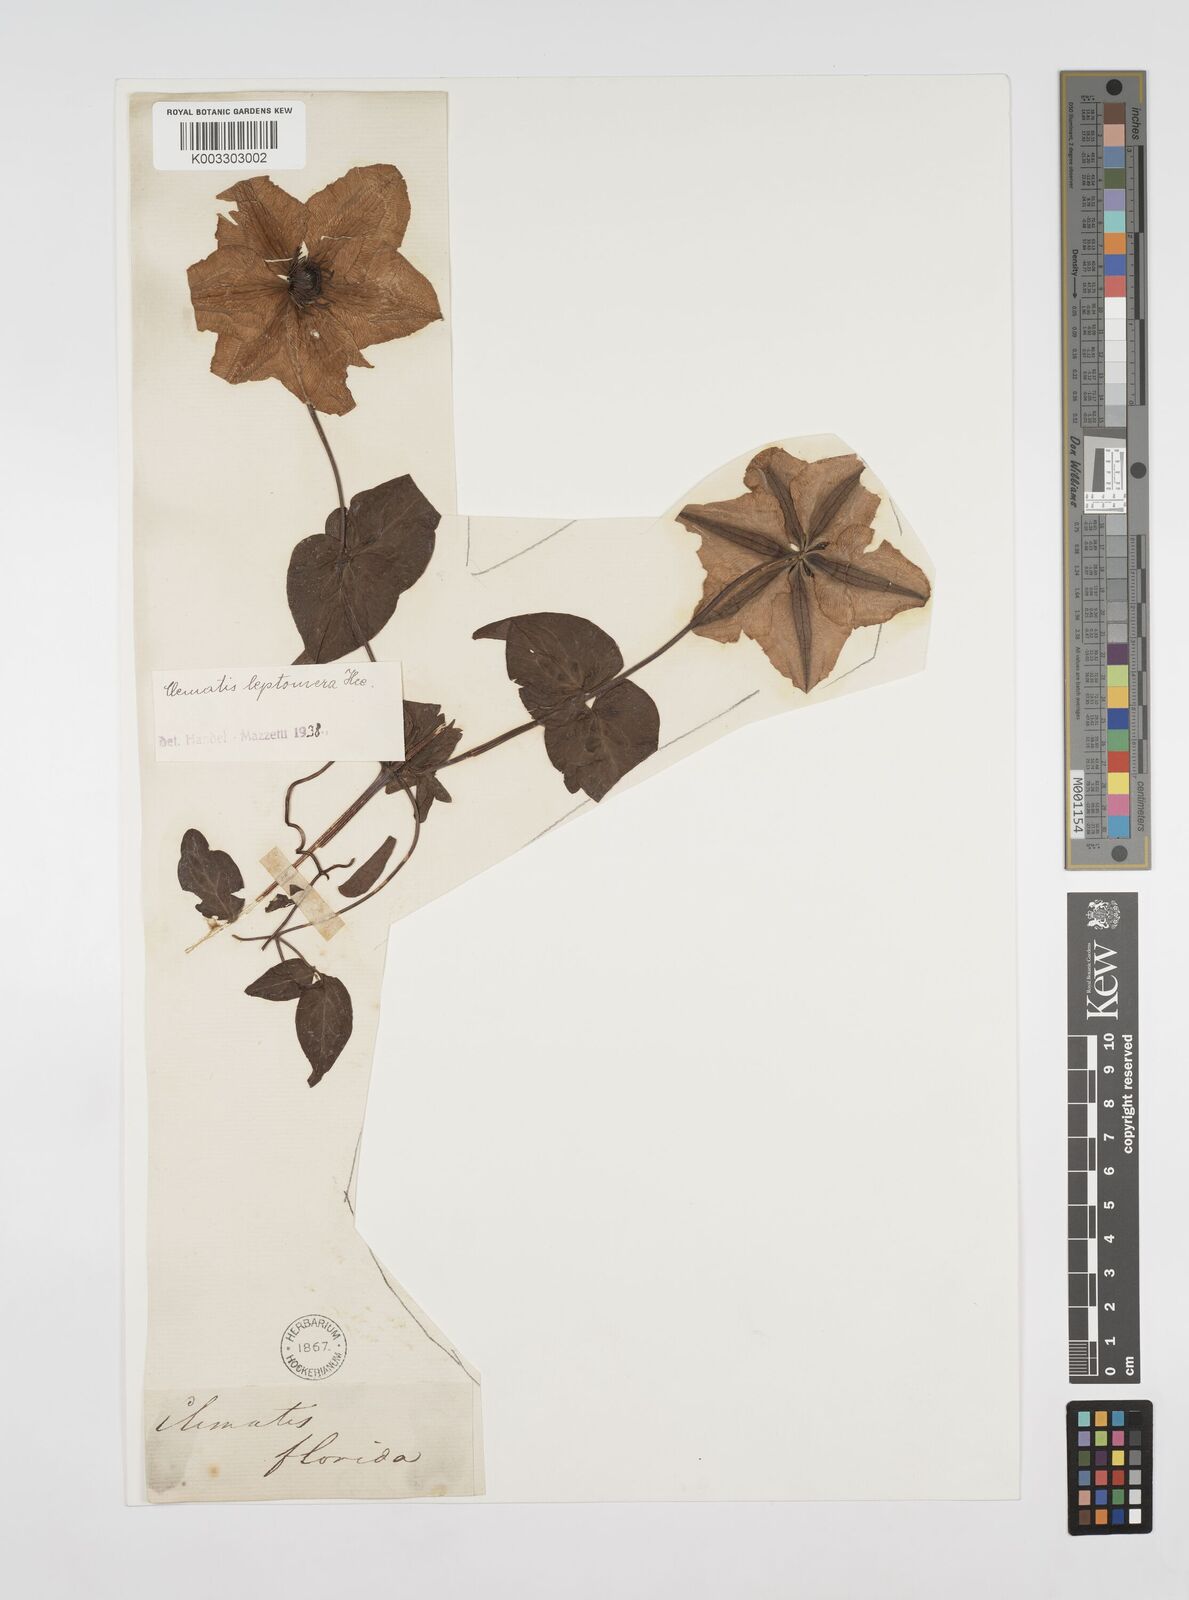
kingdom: Plantae
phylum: Tracheophyta
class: Magnoliopsida
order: Ranunculales
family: Ranunculaceae
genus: Clematis
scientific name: Clematis florida
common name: Asian virginsbower
